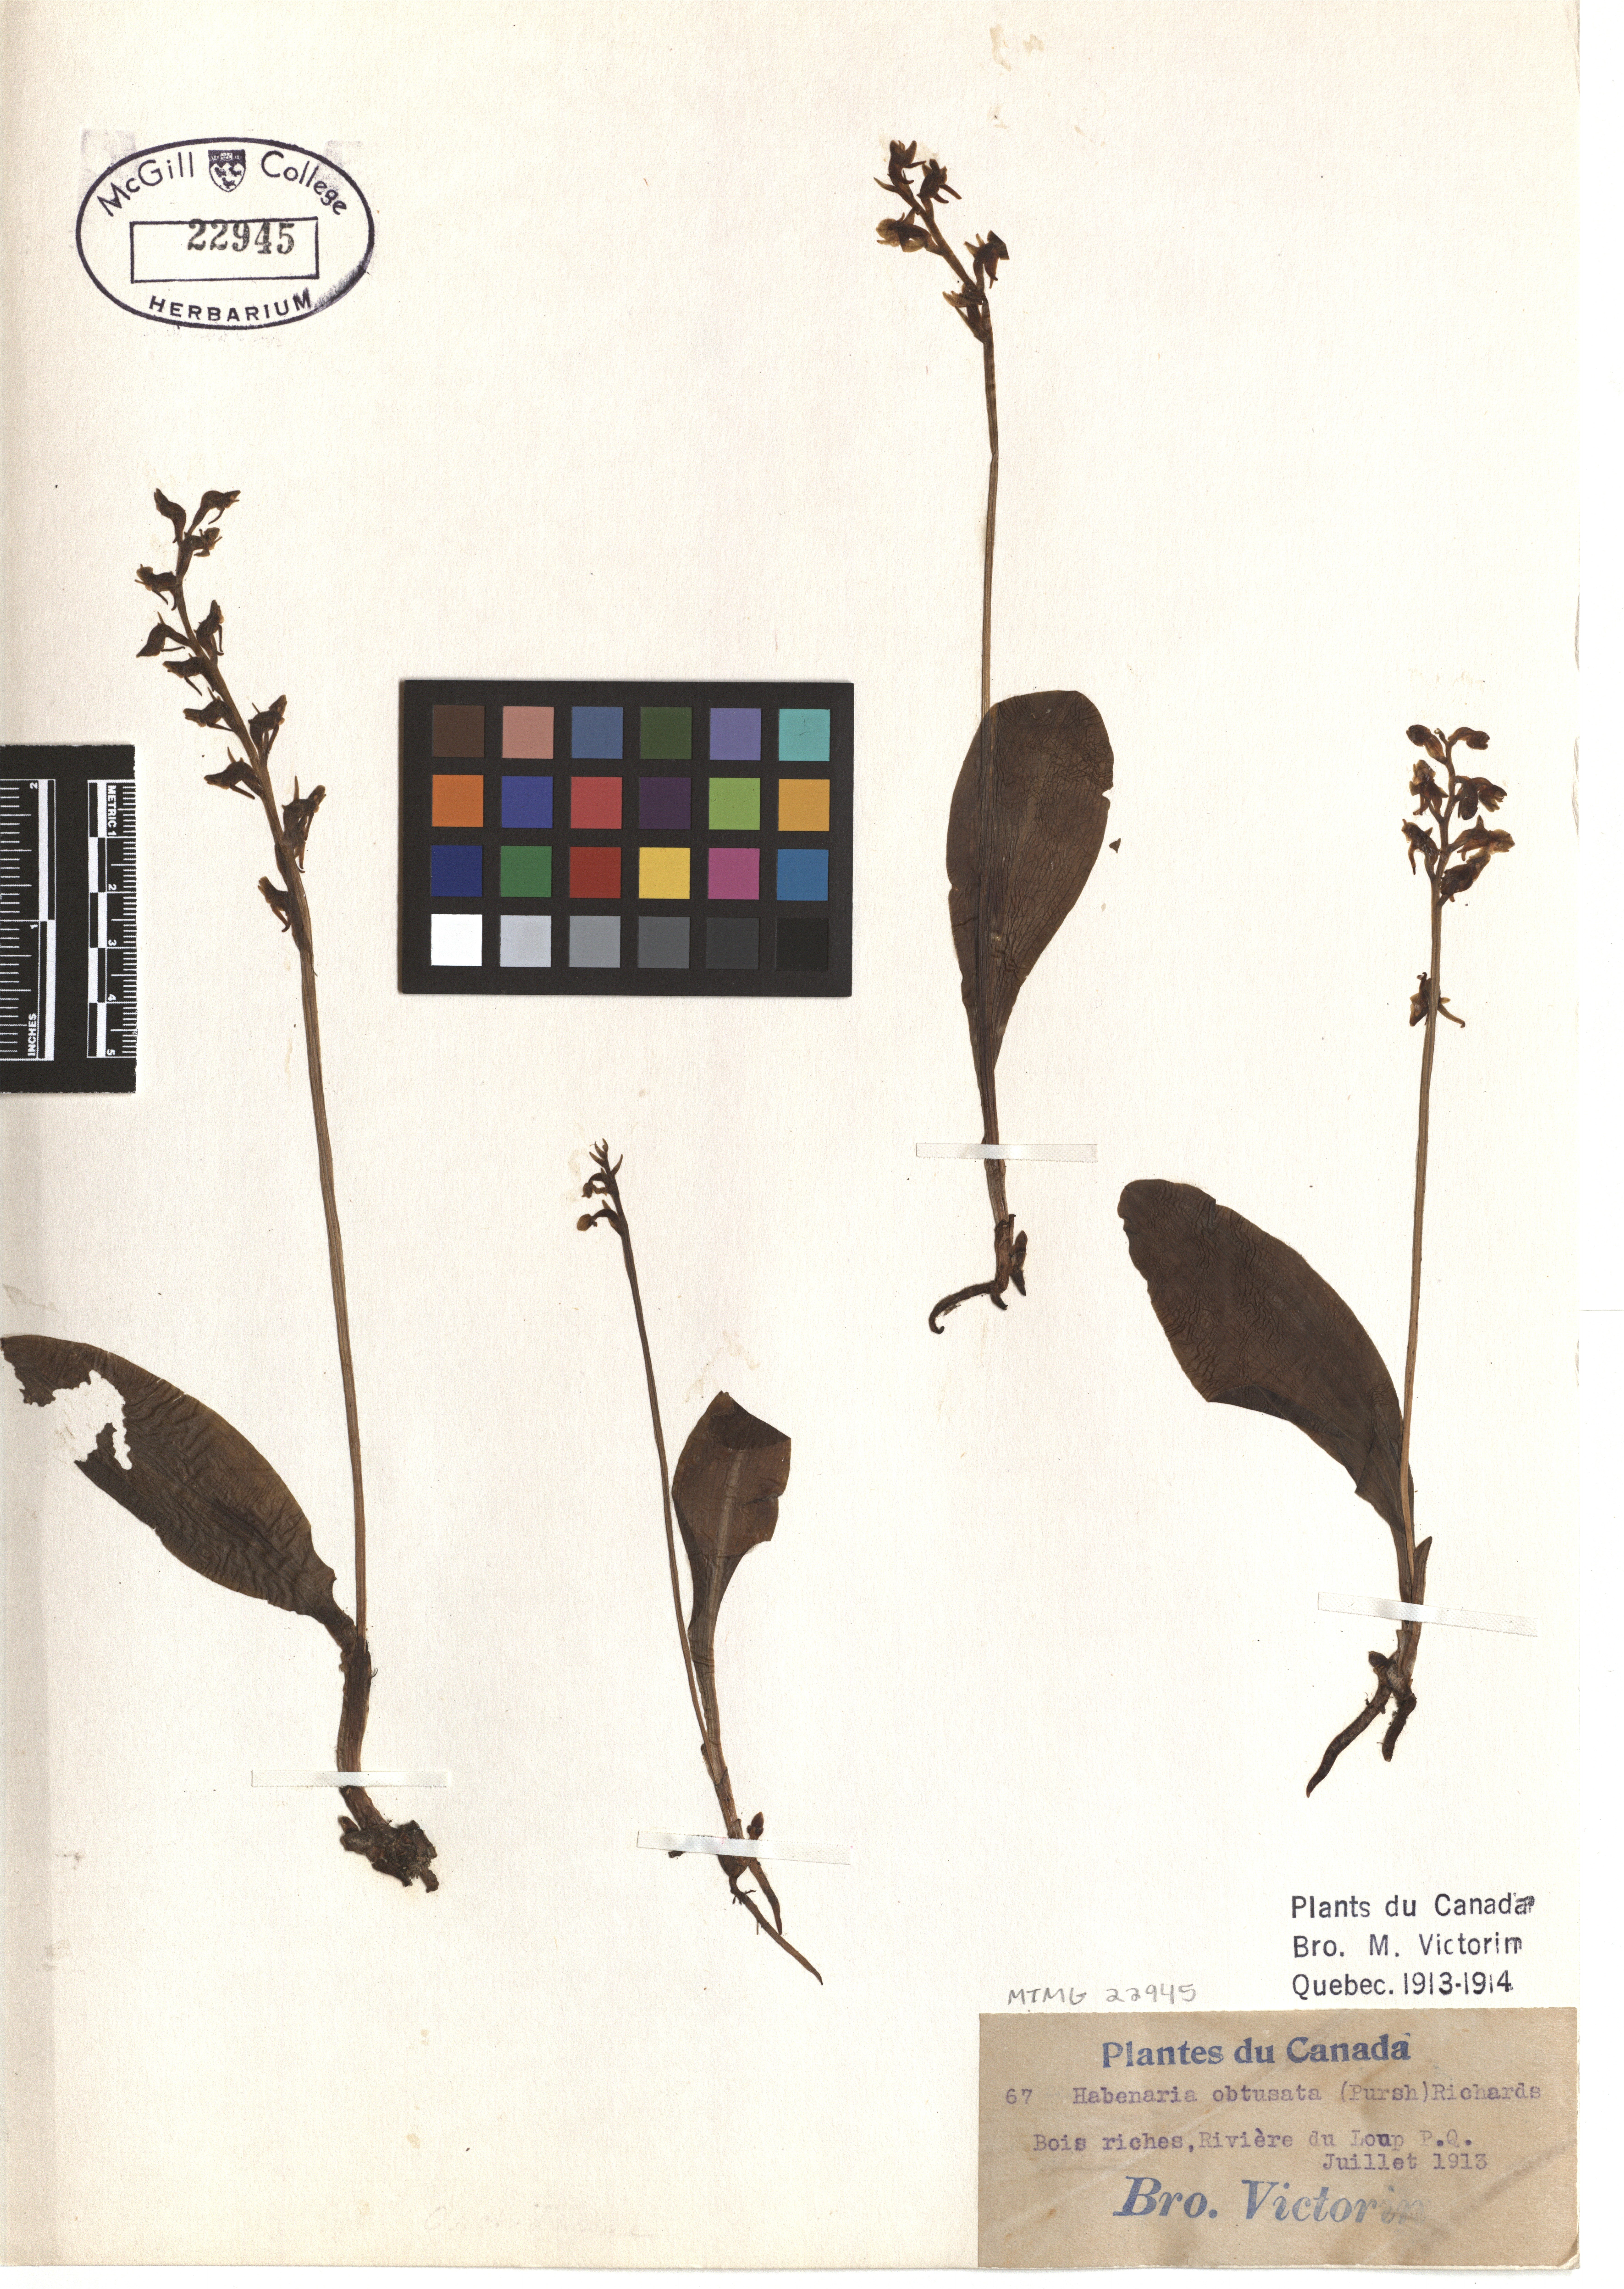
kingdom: Plantae
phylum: Tracheophyta
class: Liliopsida
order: Asparagales
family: Orchidaceae
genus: Platanthera
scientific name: Platanthera obtusata
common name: Blunt bog orchid
